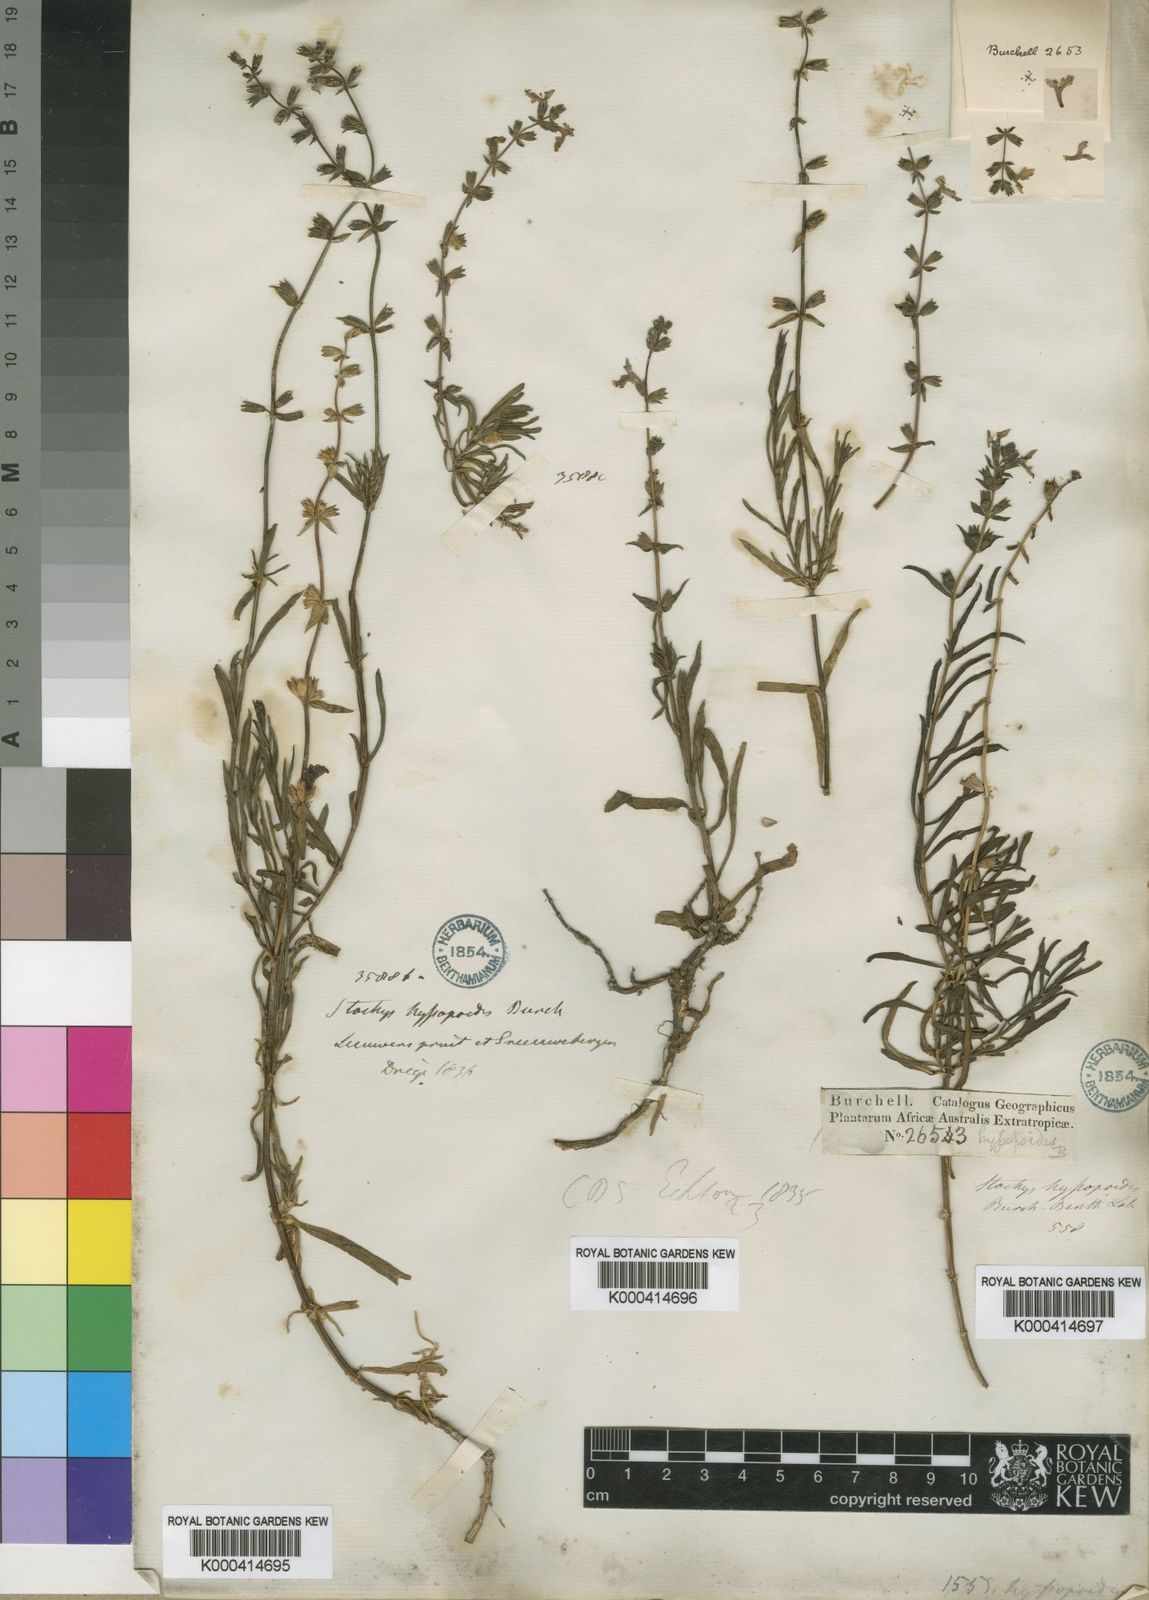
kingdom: Plantae
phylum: Tracheophyta
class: Magnoliopsida
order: Lamiales
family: Lamiaceae
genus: Stachys
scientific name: Stachys hyssopoides
